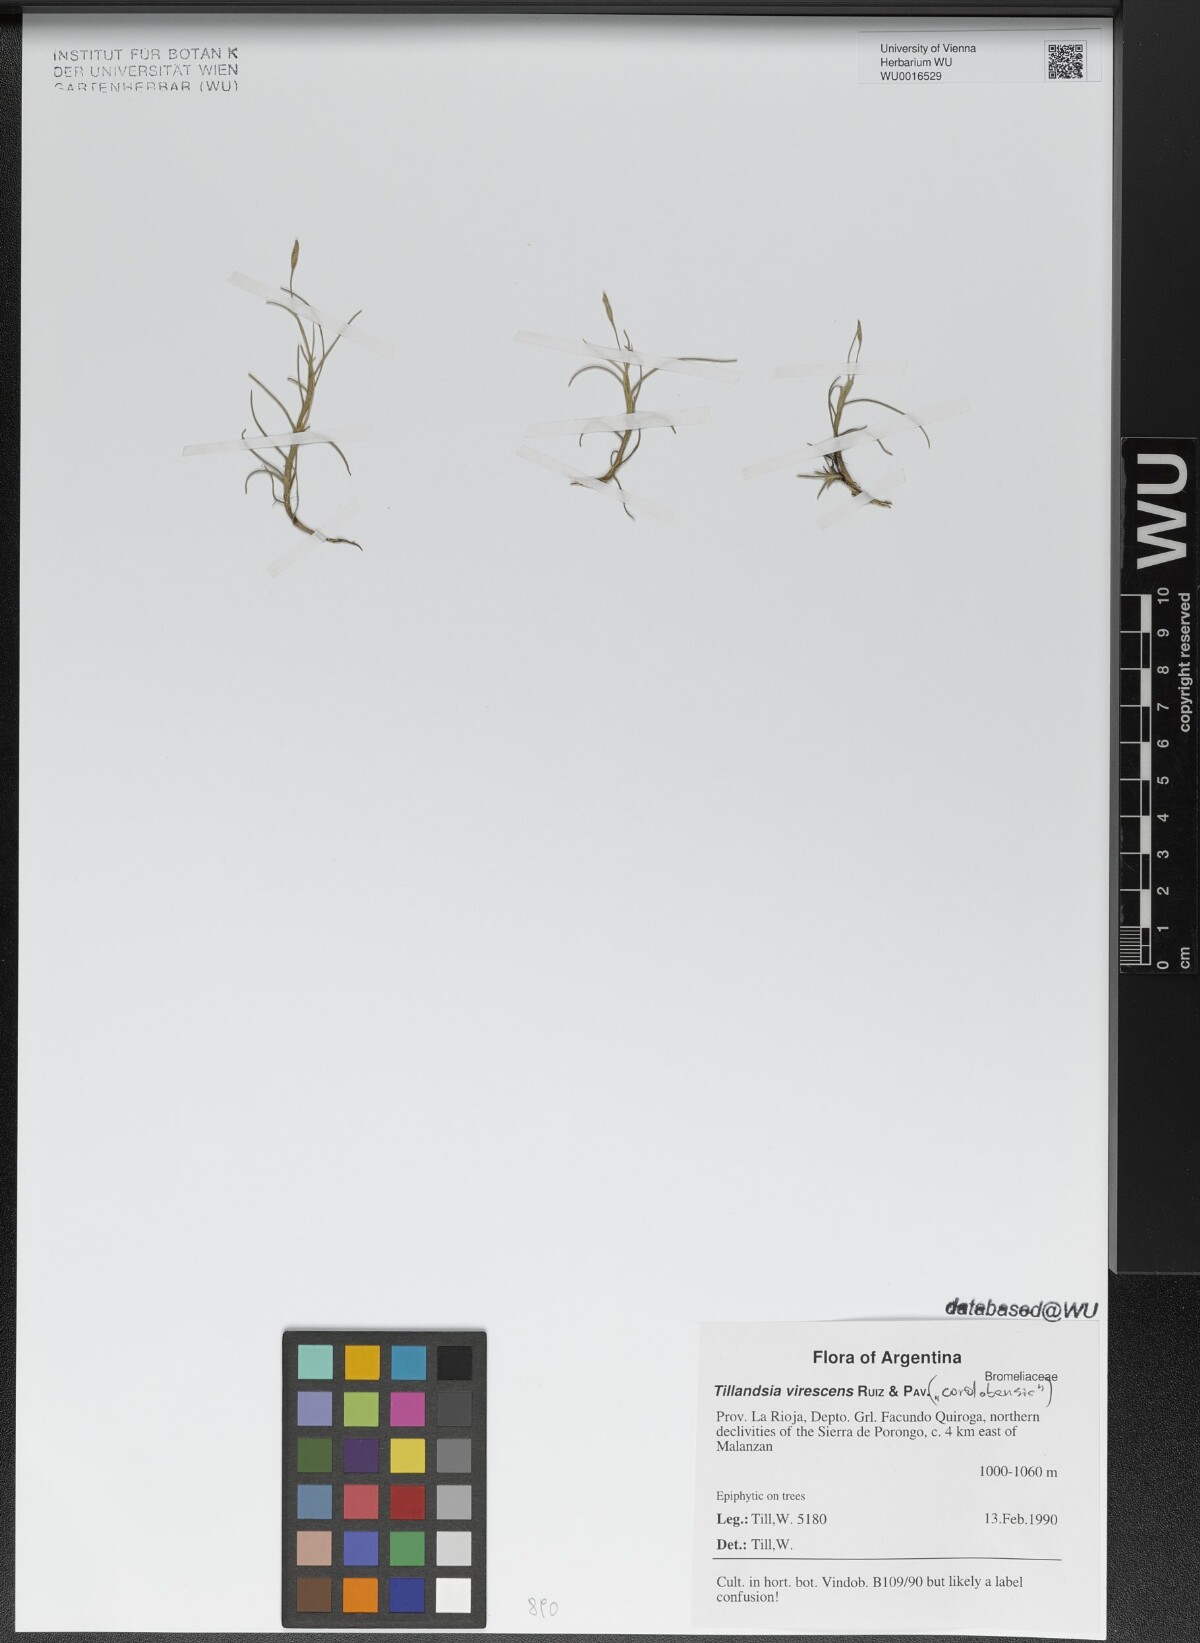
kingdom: Plantae
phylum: Tracheophyta
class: Liliopsida
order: Poales
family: Bromeliaceae
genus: Tillandsia
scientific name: Tillandsia virescens
